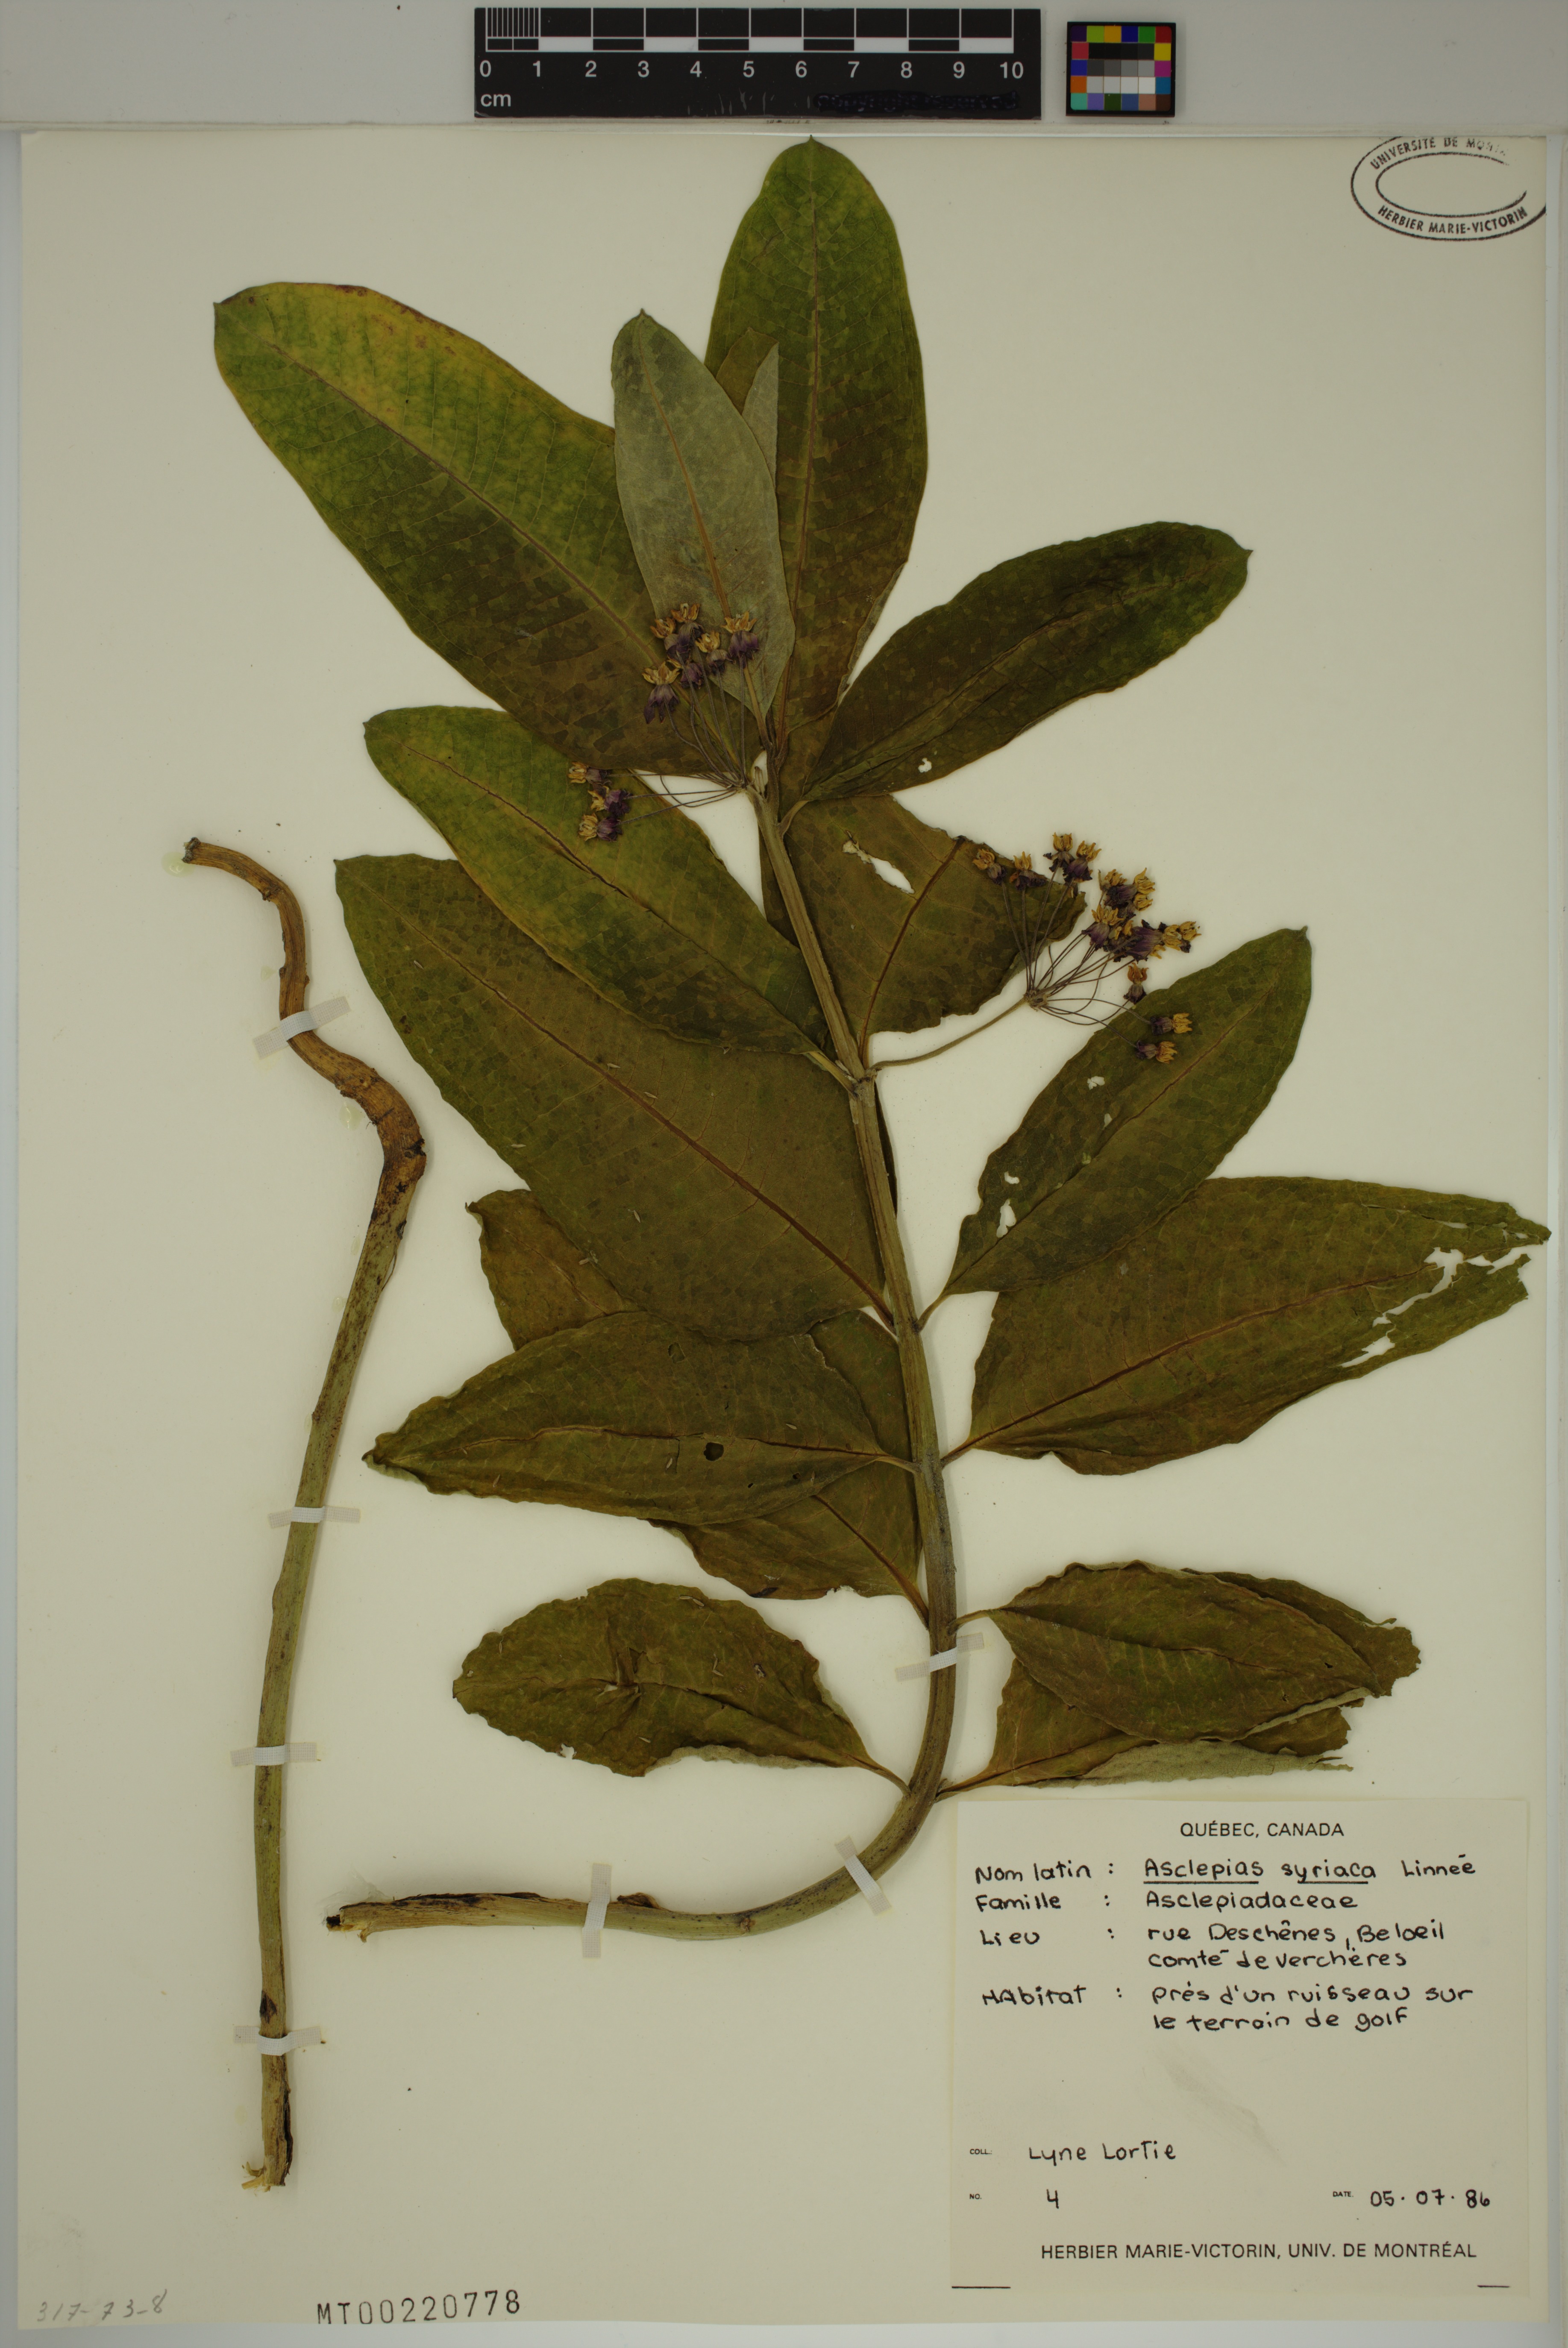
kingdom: Plantae
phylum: Tracheophyta
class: Magnoliopsida
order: Gentianales
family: Apocynaceae
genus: Asclepias
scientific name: Asclepias syriaca
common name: Common milkweed
